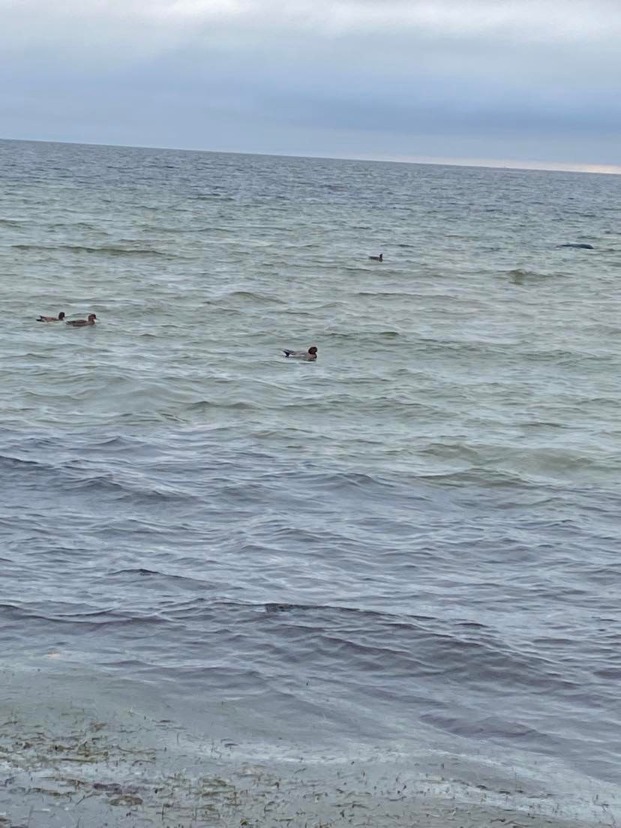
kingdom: Animalia
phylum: Chordata
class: Aves
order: Anseriformes
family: Anatidae
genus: Mareca
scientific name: Mareca penelope
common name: Pibeand
